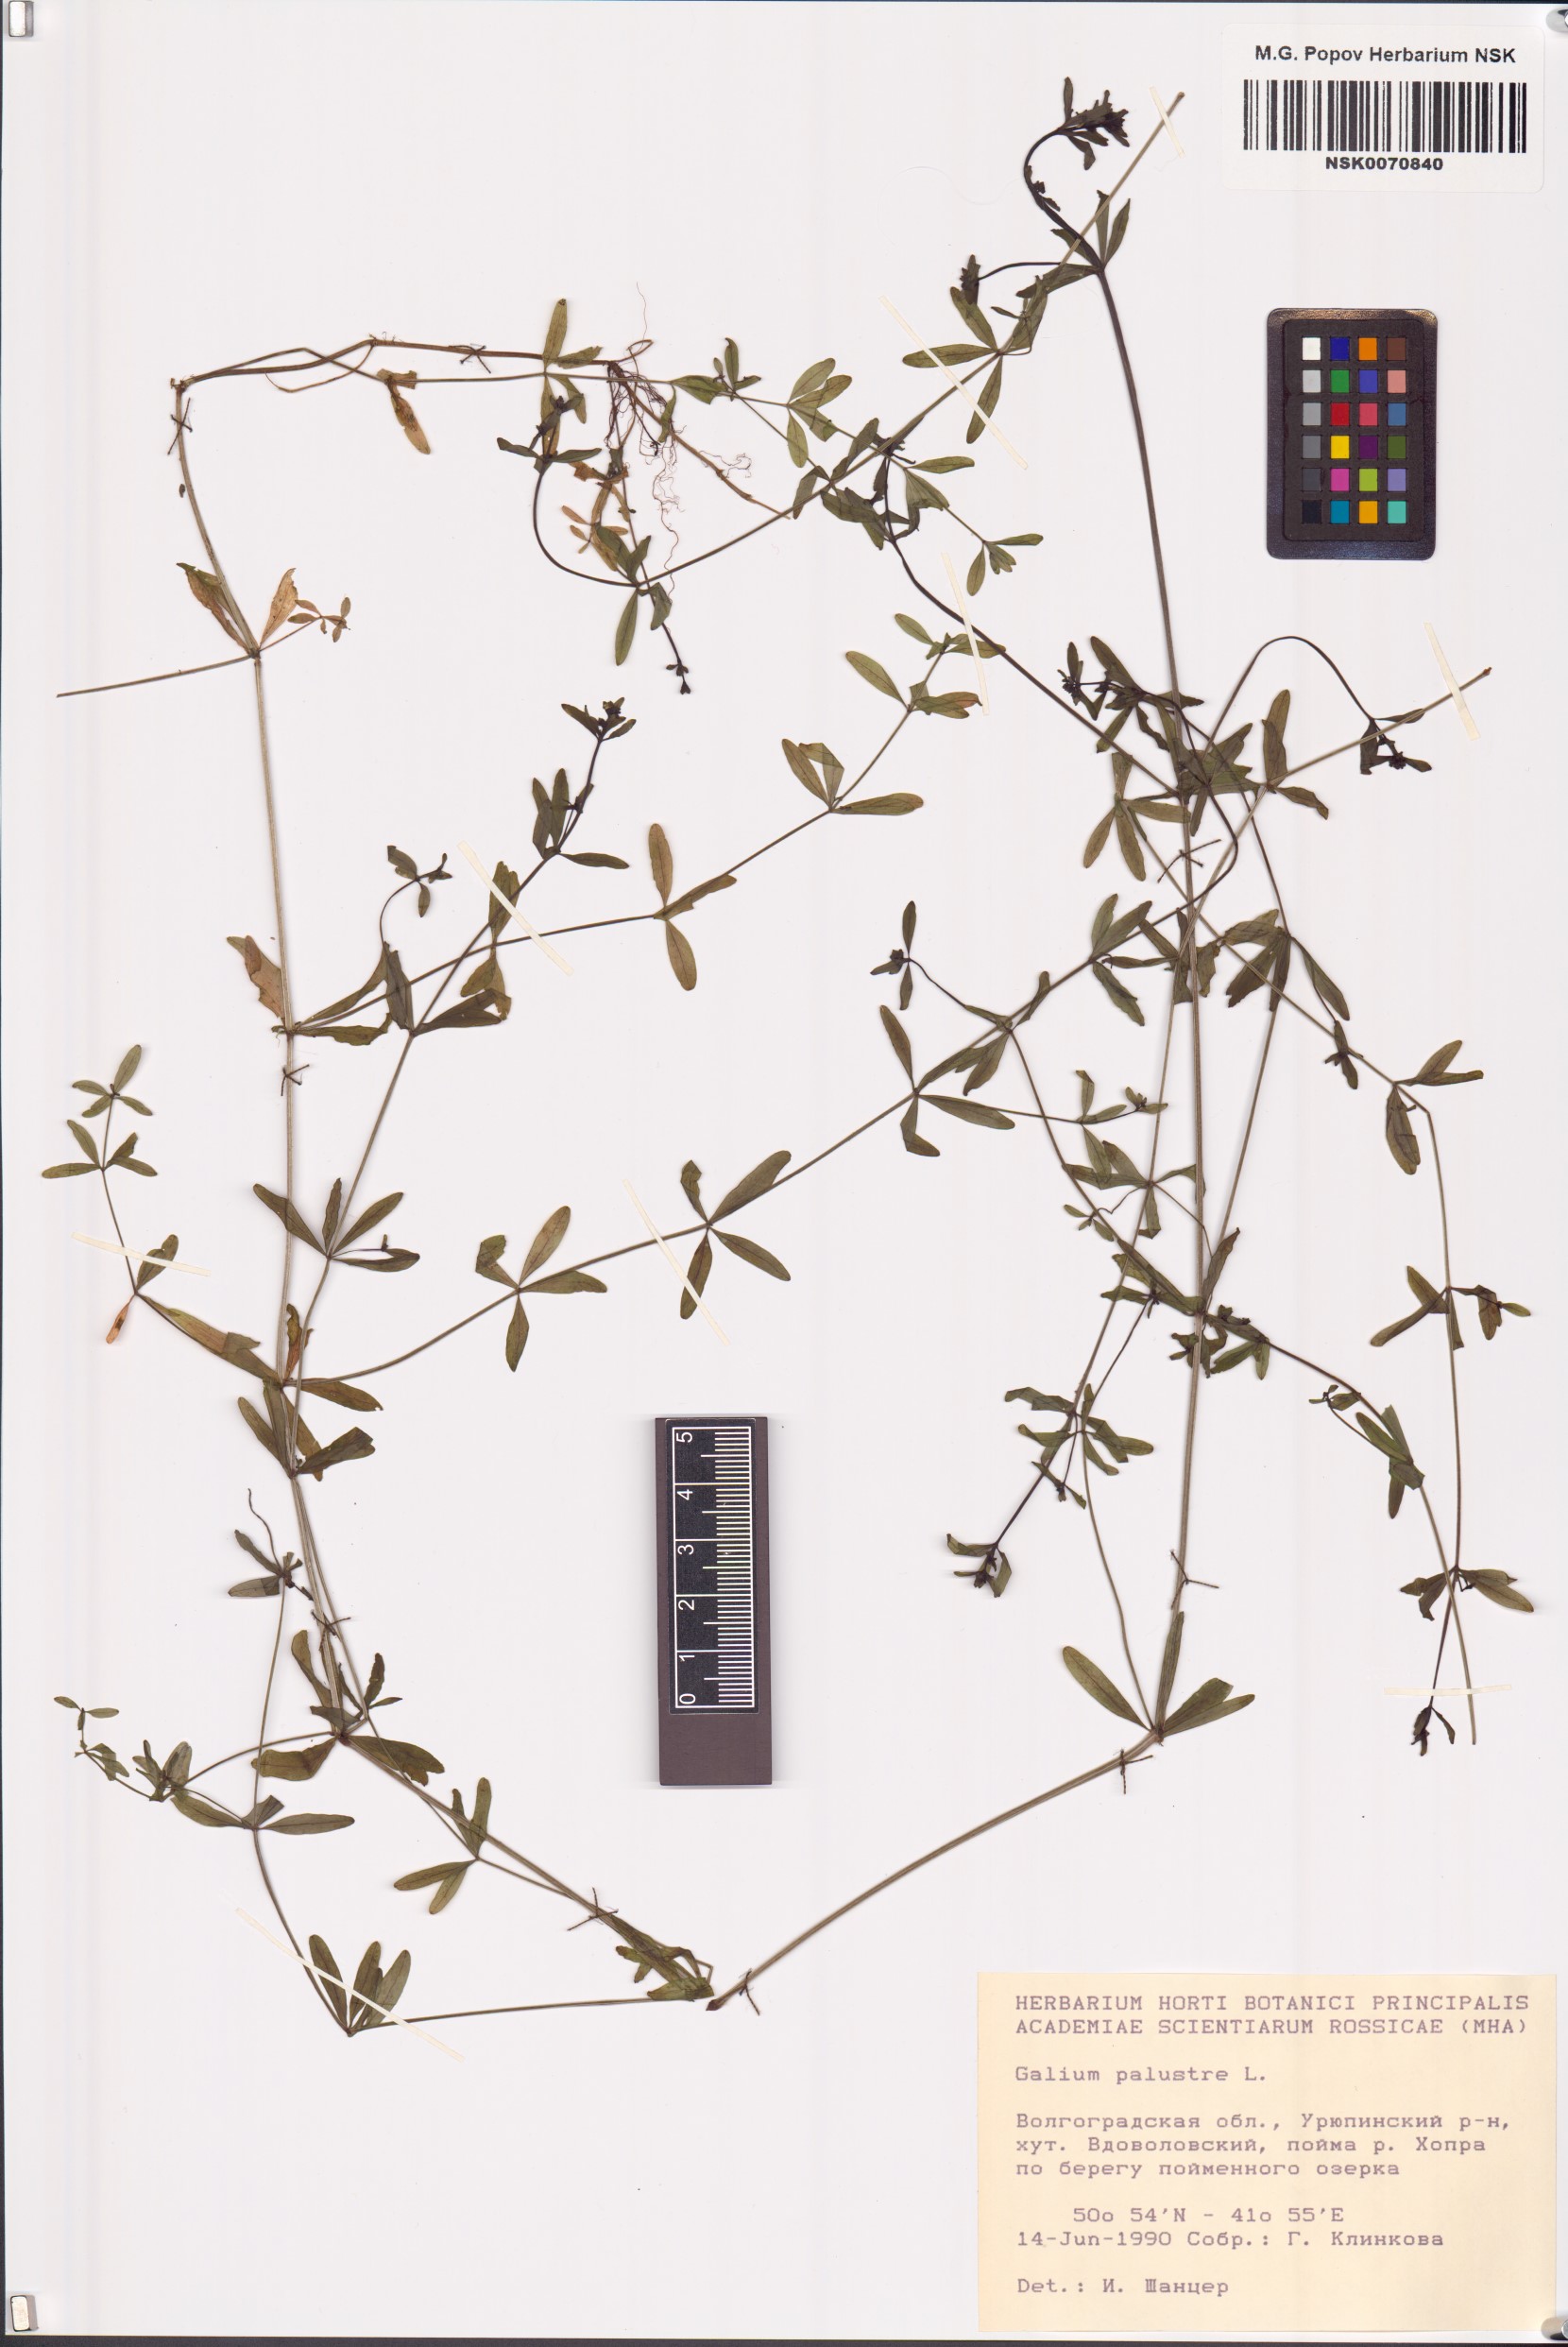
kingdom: Plantae
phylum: Tracheophyta
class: Magnoliopsida
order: Gentianales
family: Rubiaceae
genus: Galium
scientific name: Galium palustre
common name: Common marsh-bedstraw
